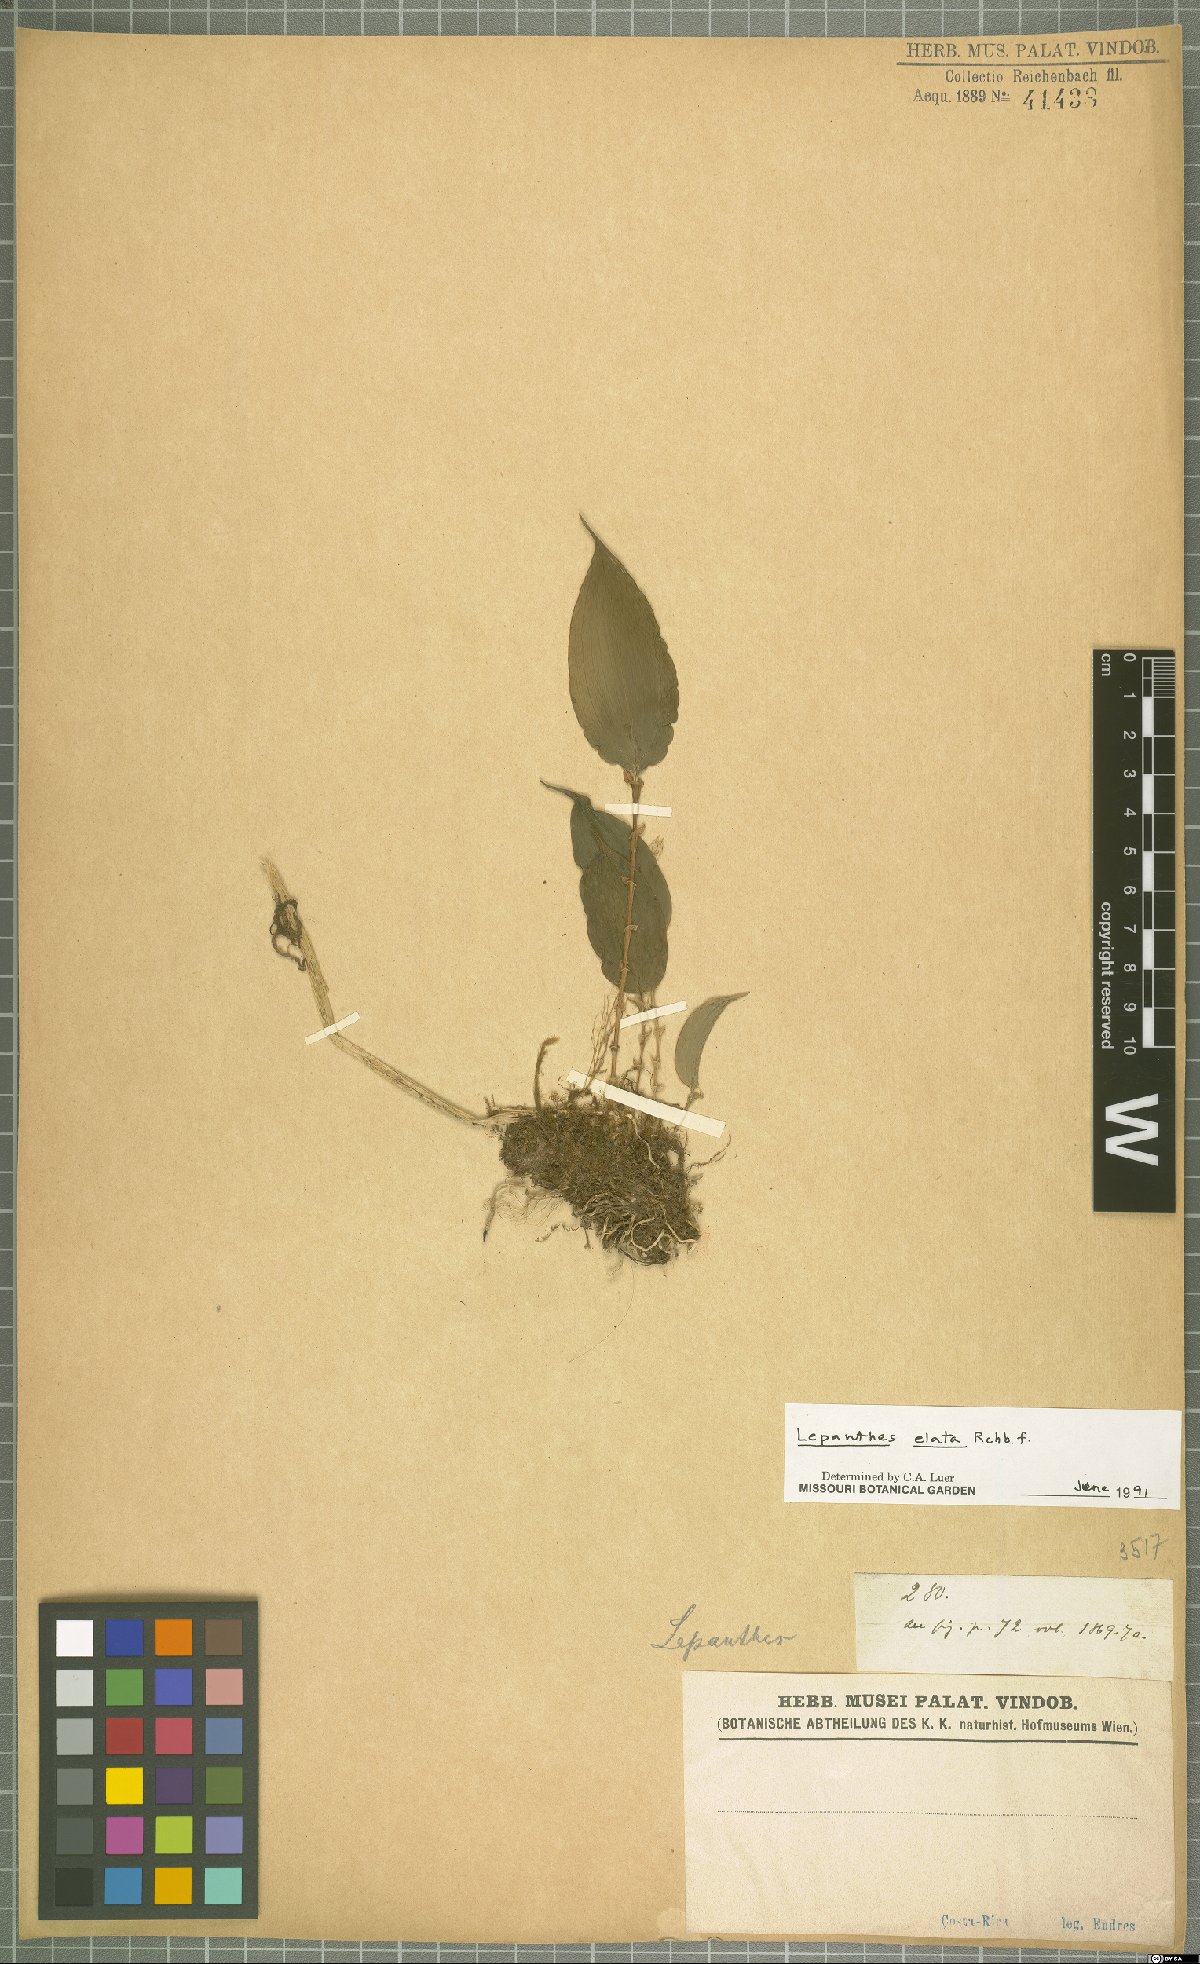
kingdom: Plantae
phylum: Tracheophyta
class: Liliopsida
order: Asparagales
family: Orchidaceae
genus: Lepanthes
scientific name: Lepanthes elata
